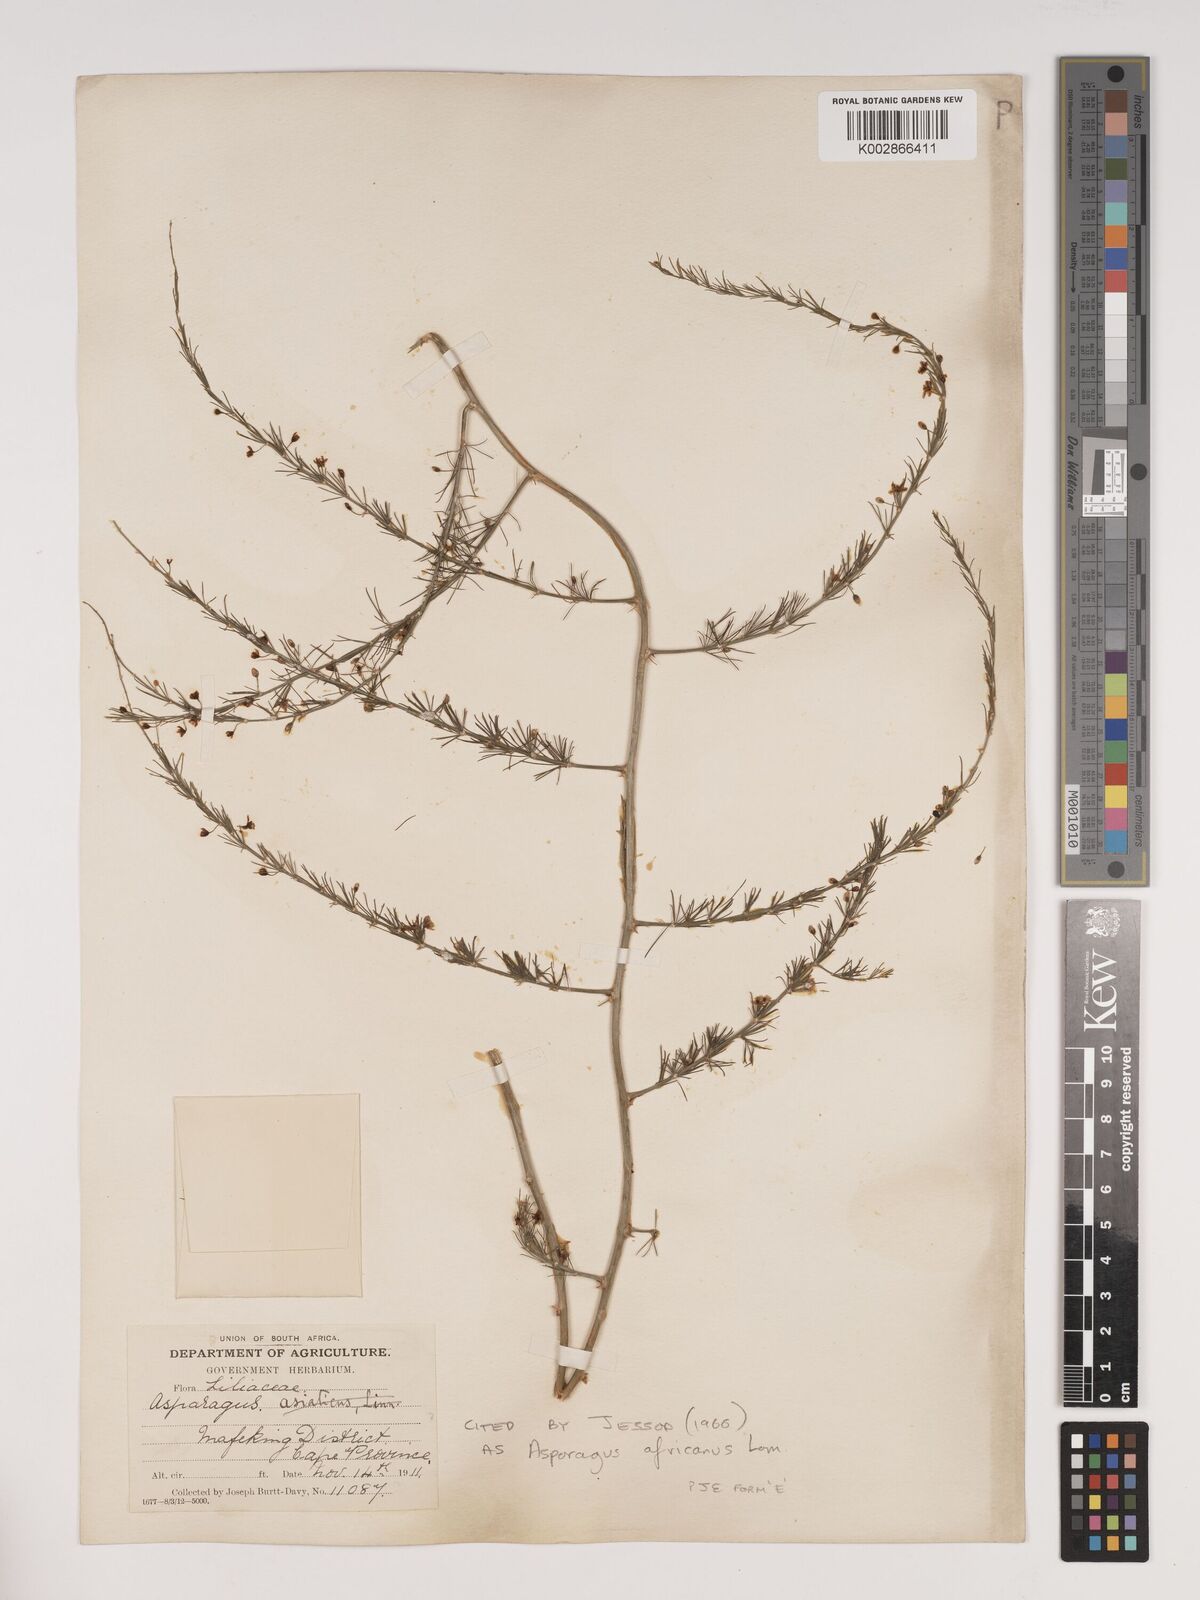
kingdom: Plantae
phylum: Tracheophyta
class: Liliopsida
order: Asparagales
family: Asparagaceae
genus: Asparagus
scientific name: Asparagus africanus
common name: Asparagus-fern
